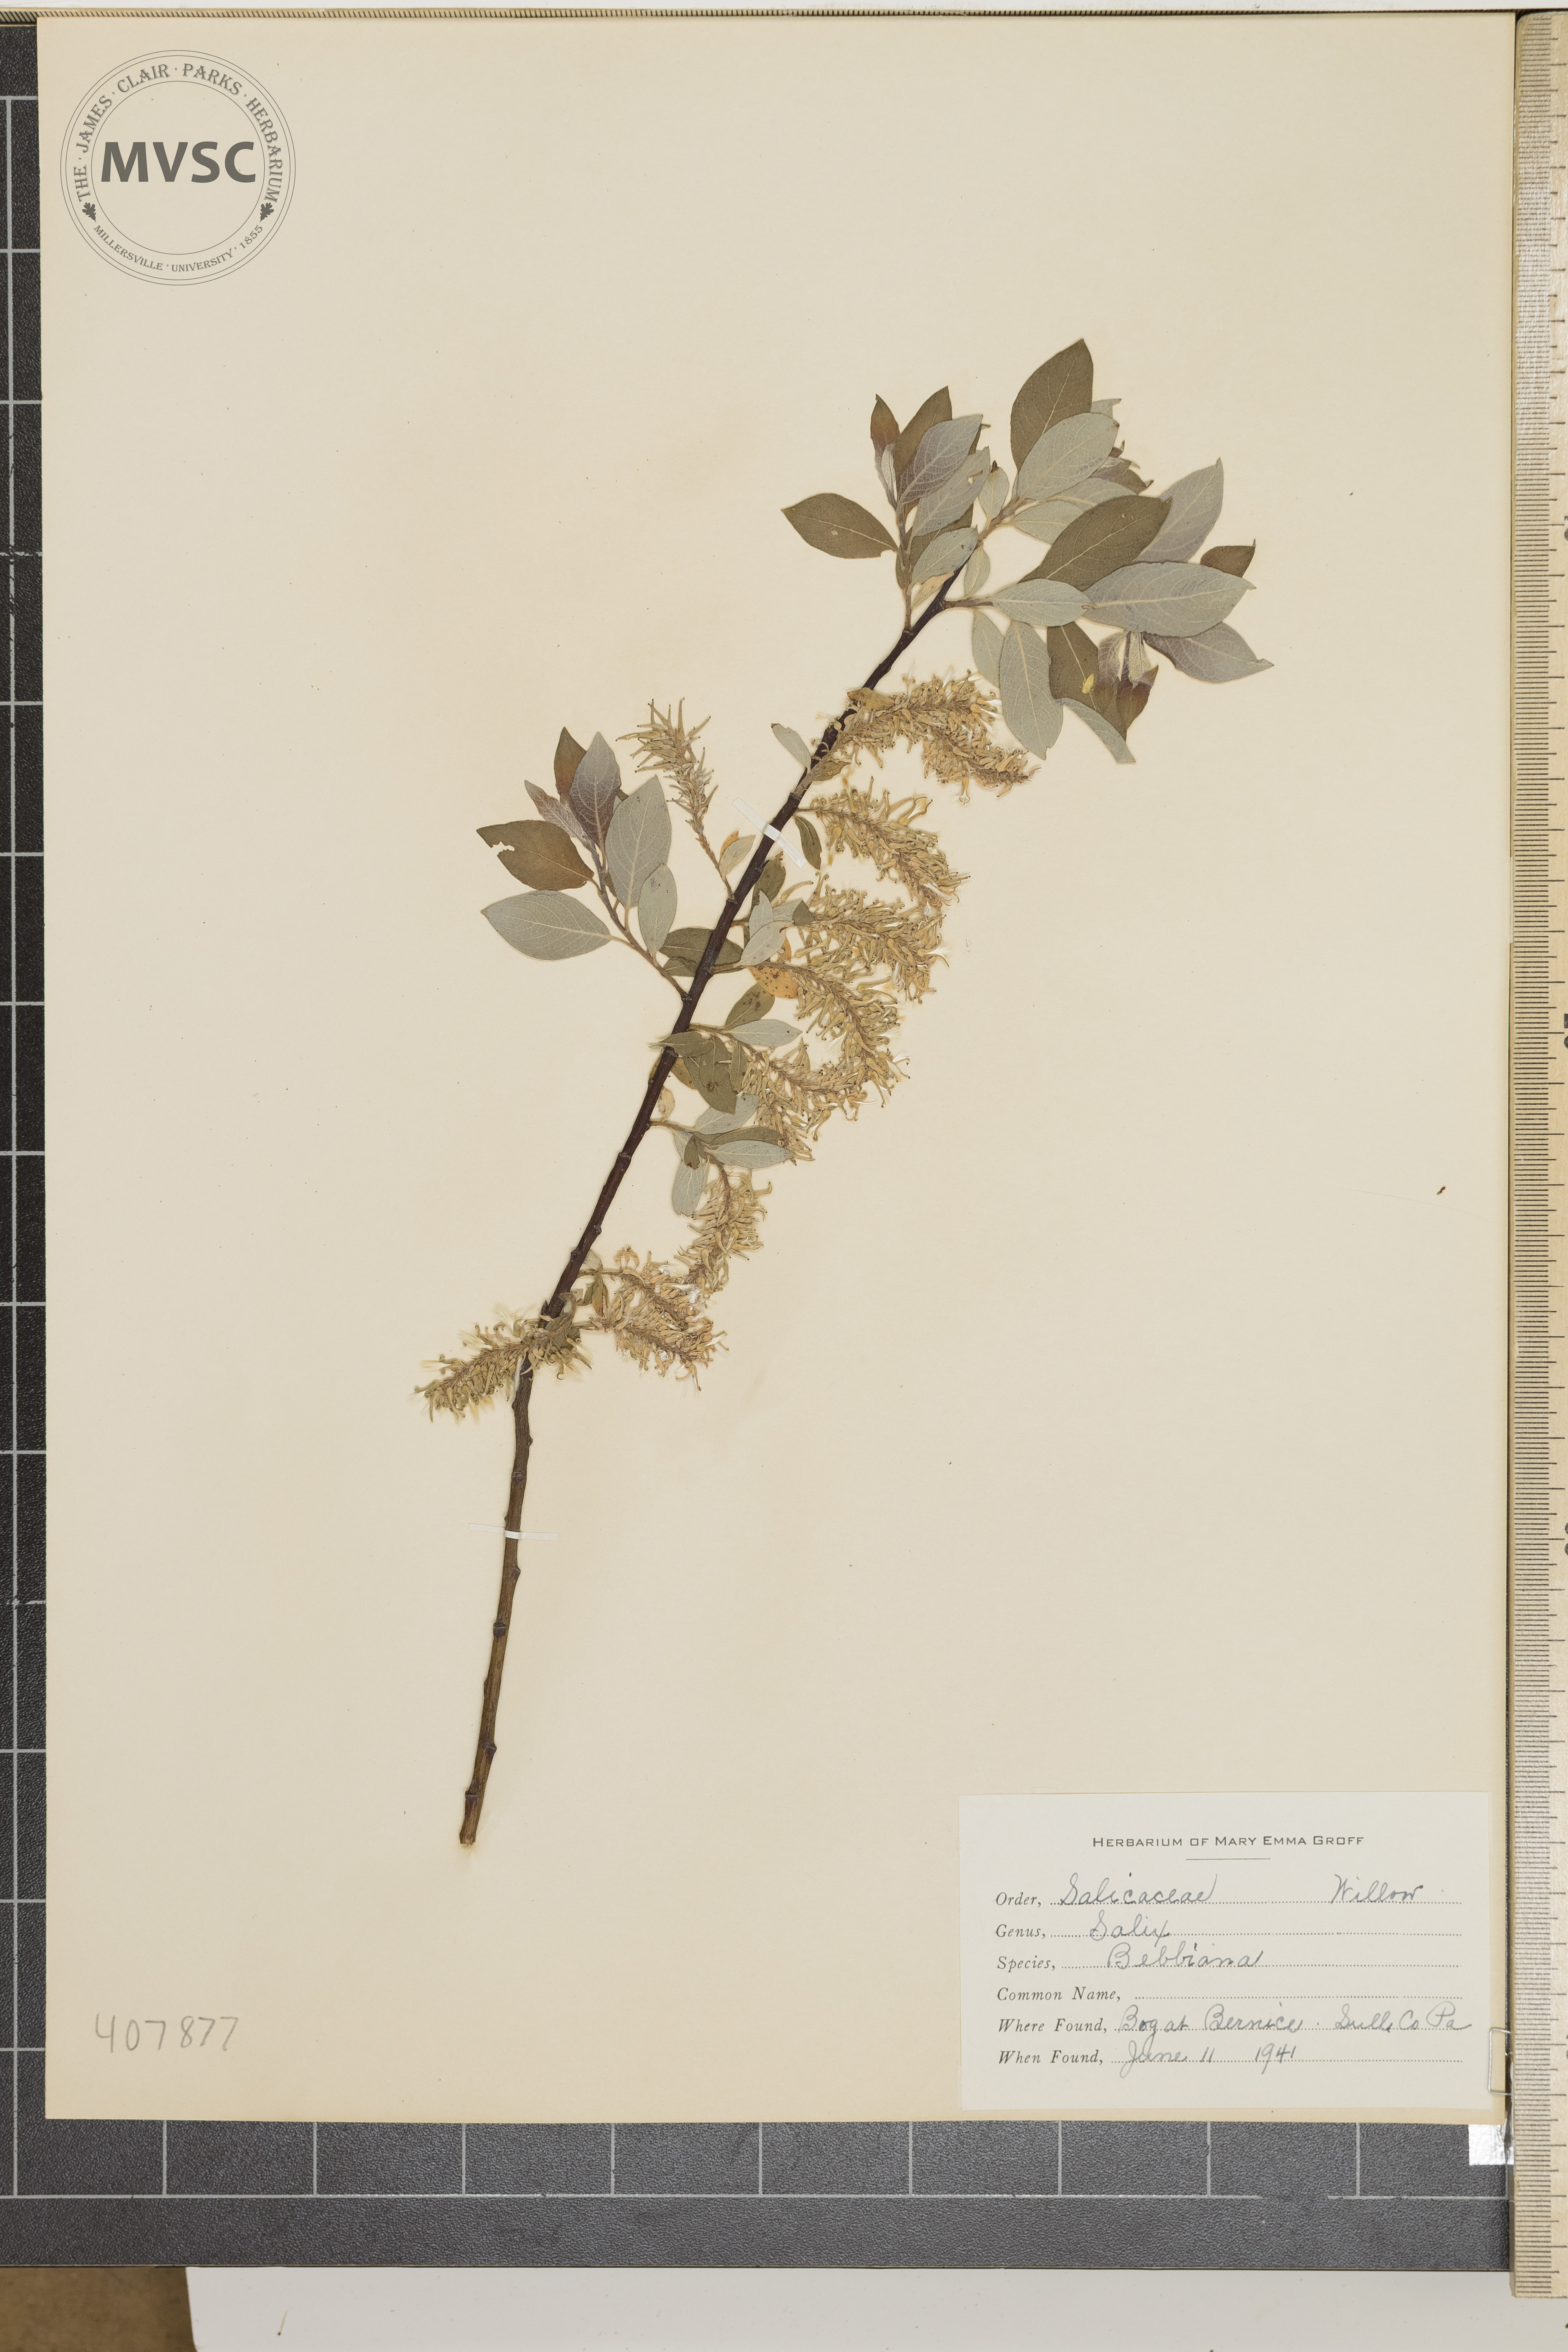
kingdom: Plantae
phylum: Tracheophyta
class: Magnoliopsida
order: Malpighiales
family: Salicaceae
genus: Salix
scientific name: Salix bebbiana
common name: Weeping Willow
